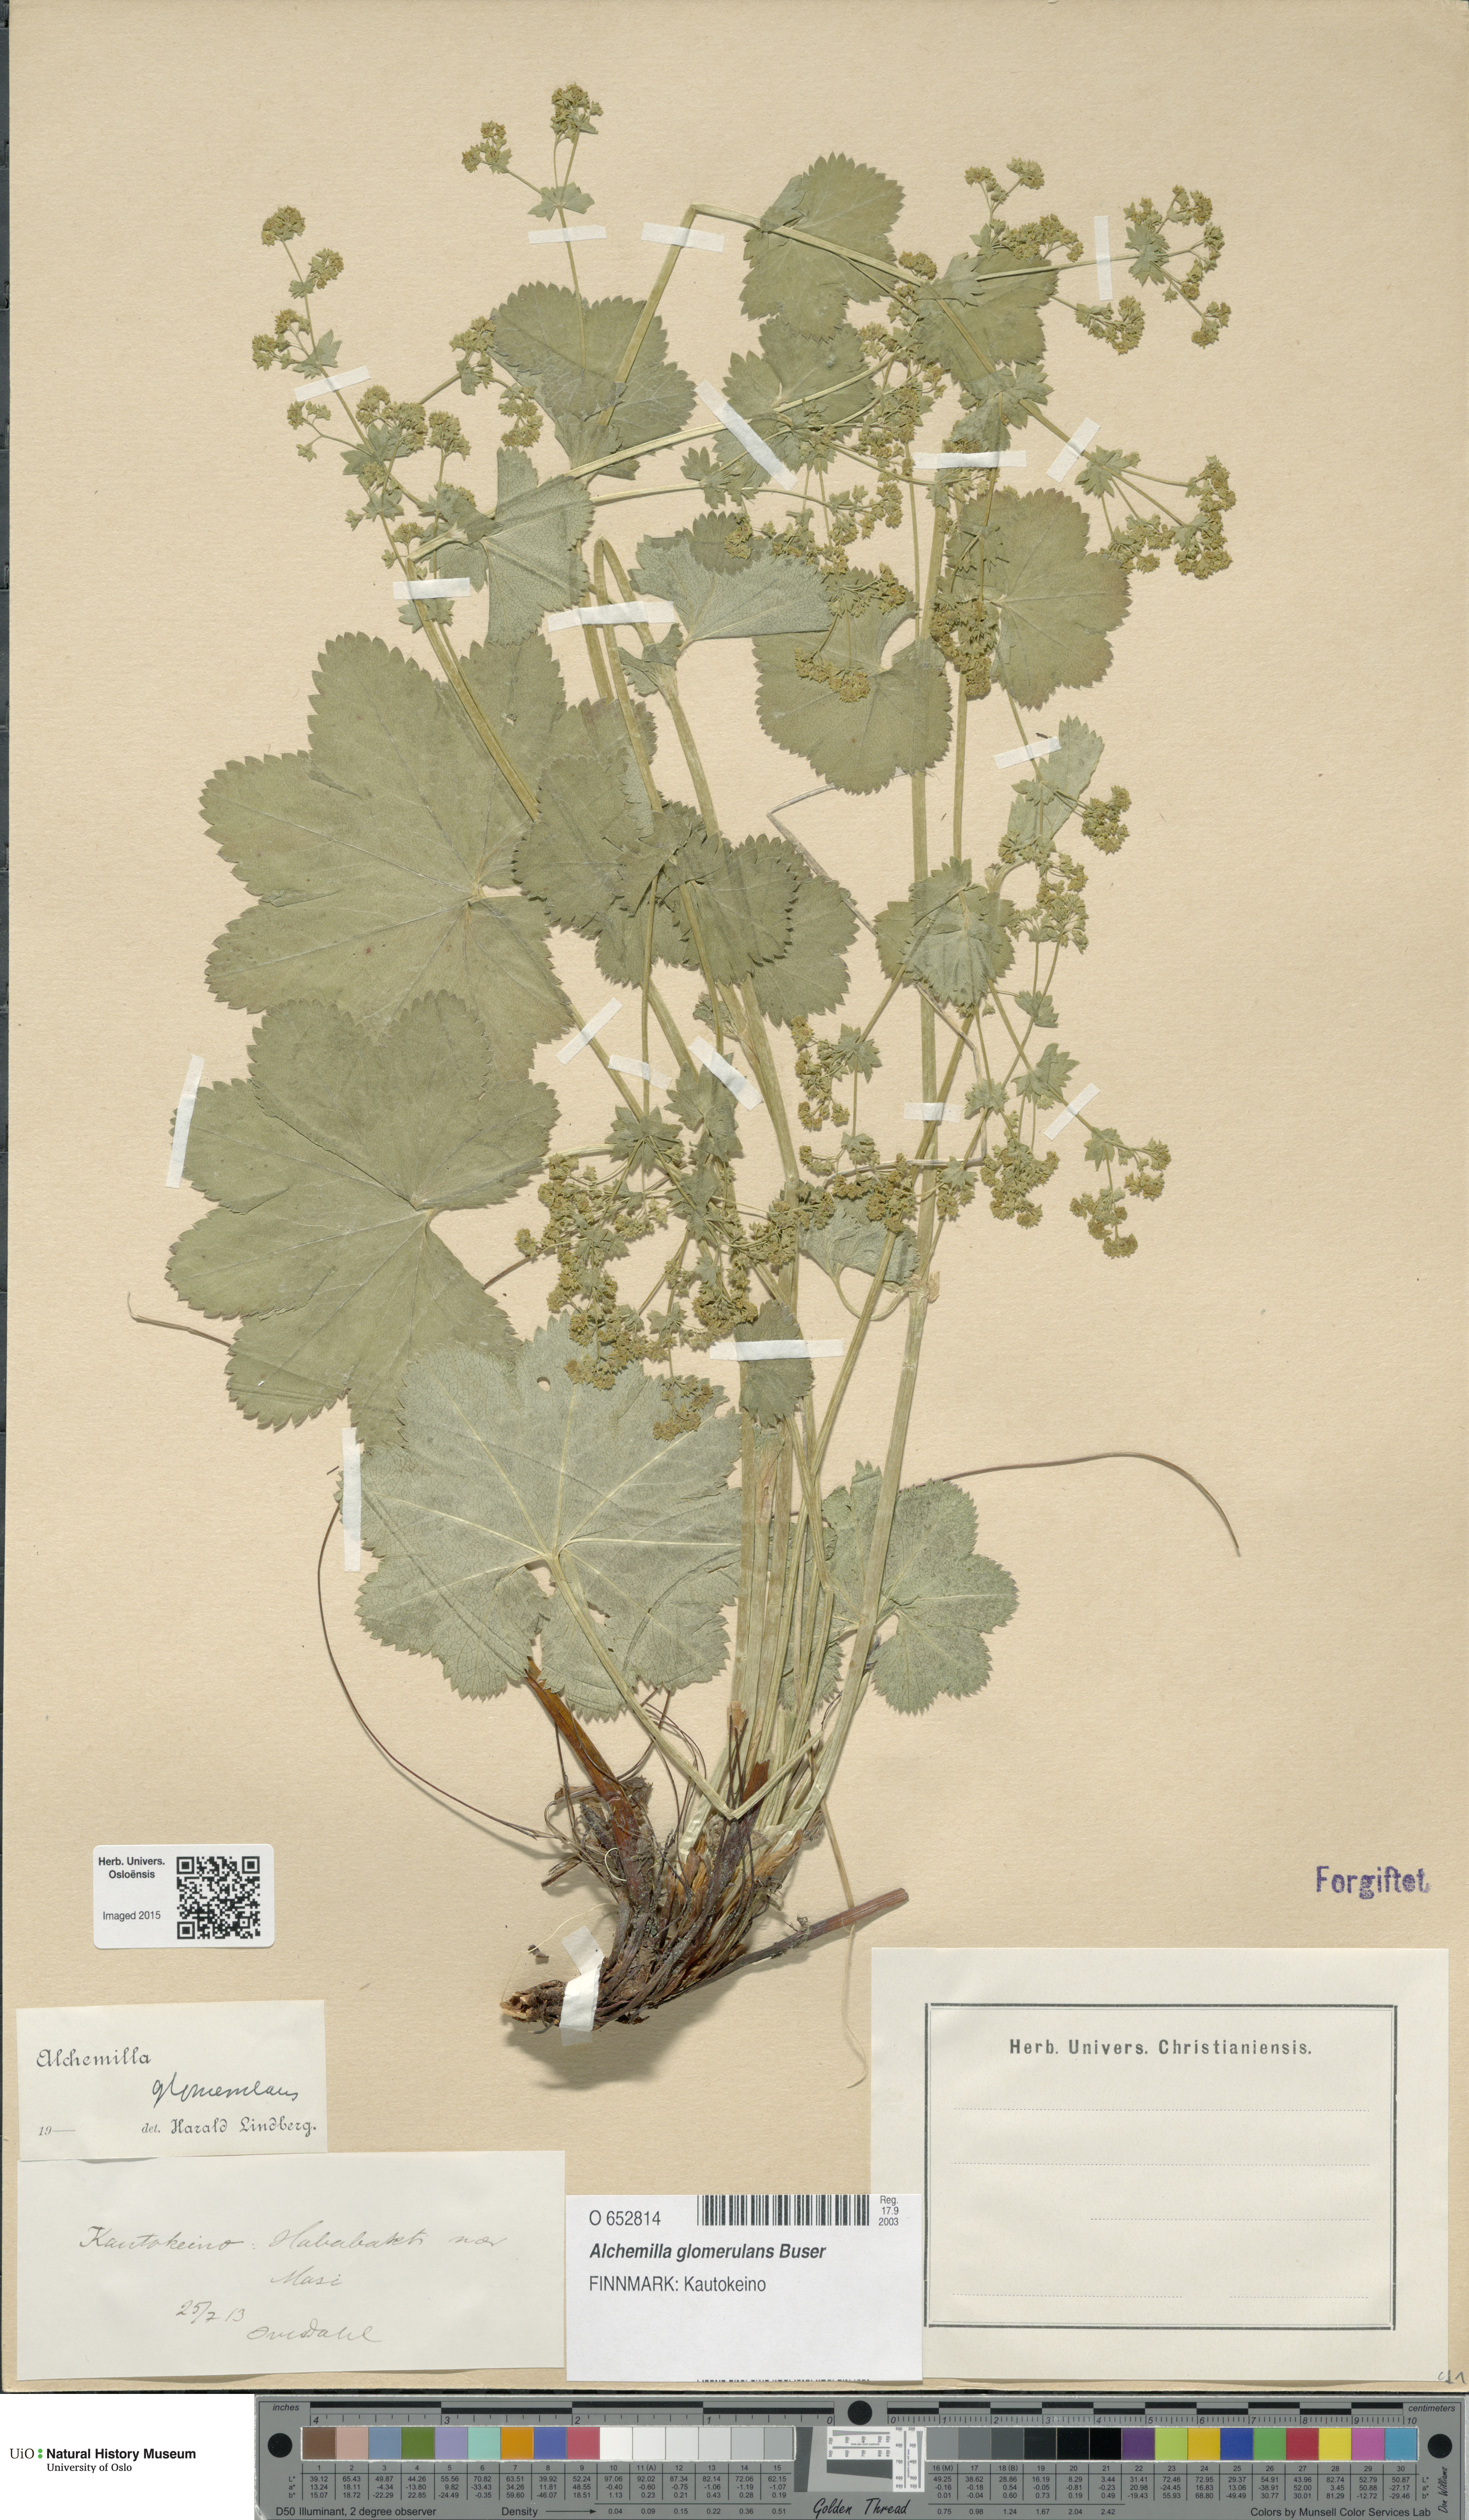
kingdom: Plantae
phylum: Tracheophyta
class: Magnoliopsida
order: Rosales
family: Rosaceae
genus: Alchemilla
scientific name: Alchemilla glomerulans
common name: Clustered lady's mantle
